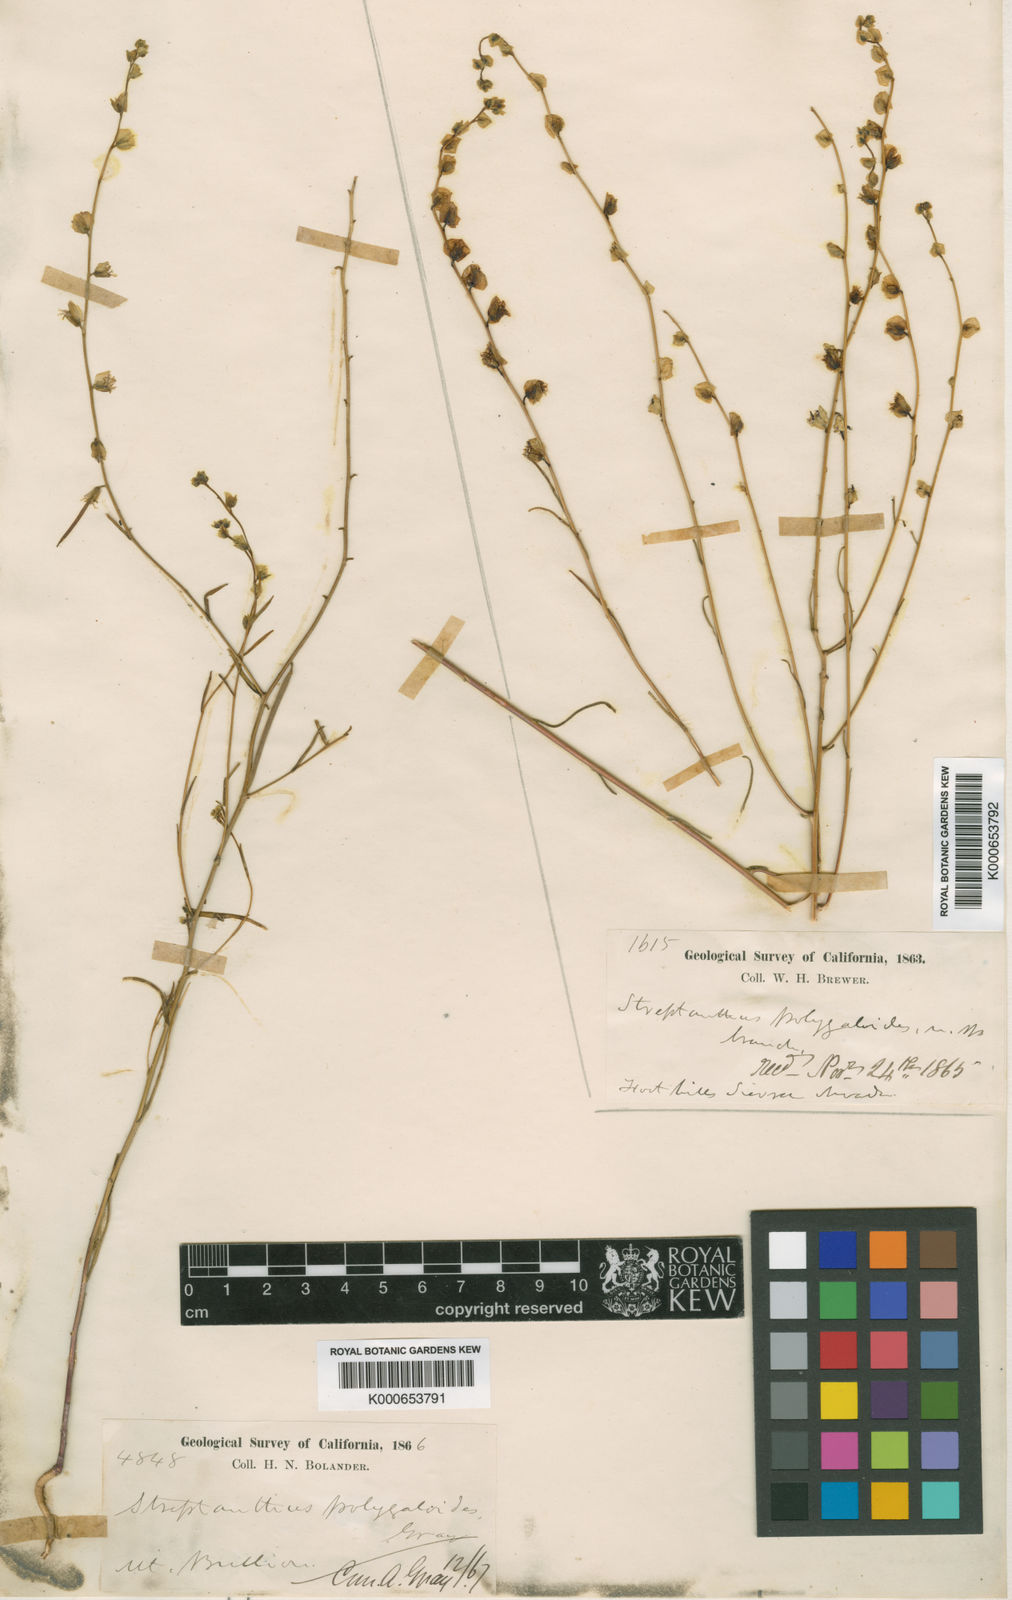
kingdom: Plantae
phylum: Tracheophyta
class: Magnoliopsida
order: Brassicales
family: Brassicaceae
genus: Streptanthus
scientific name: Streptanthus polygaloides
